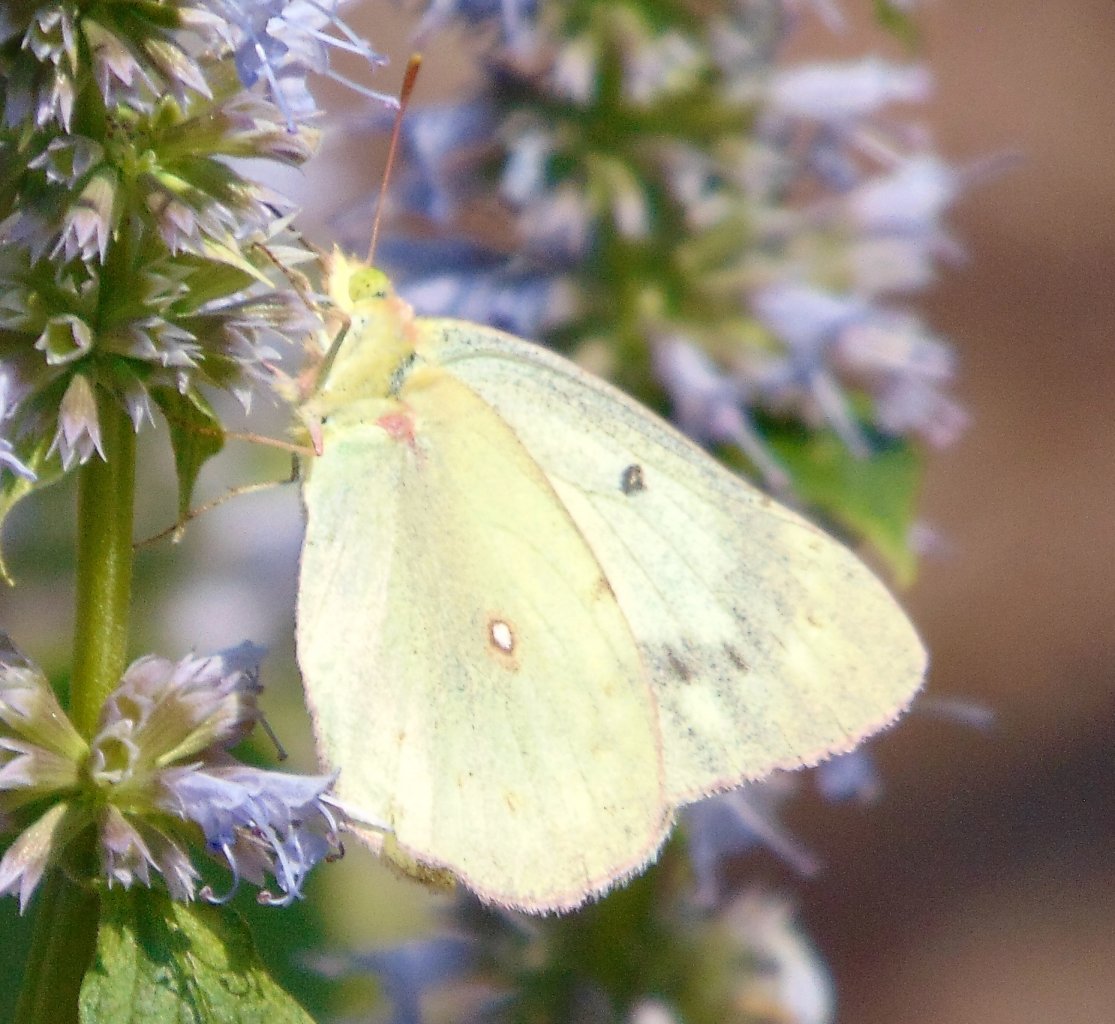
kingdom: Animalia
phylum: Arthropoda
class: Insecta
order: Lepidoptera
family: Pieridae
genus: Colias
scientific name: Colias philodice
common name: Clouded Sulphur
